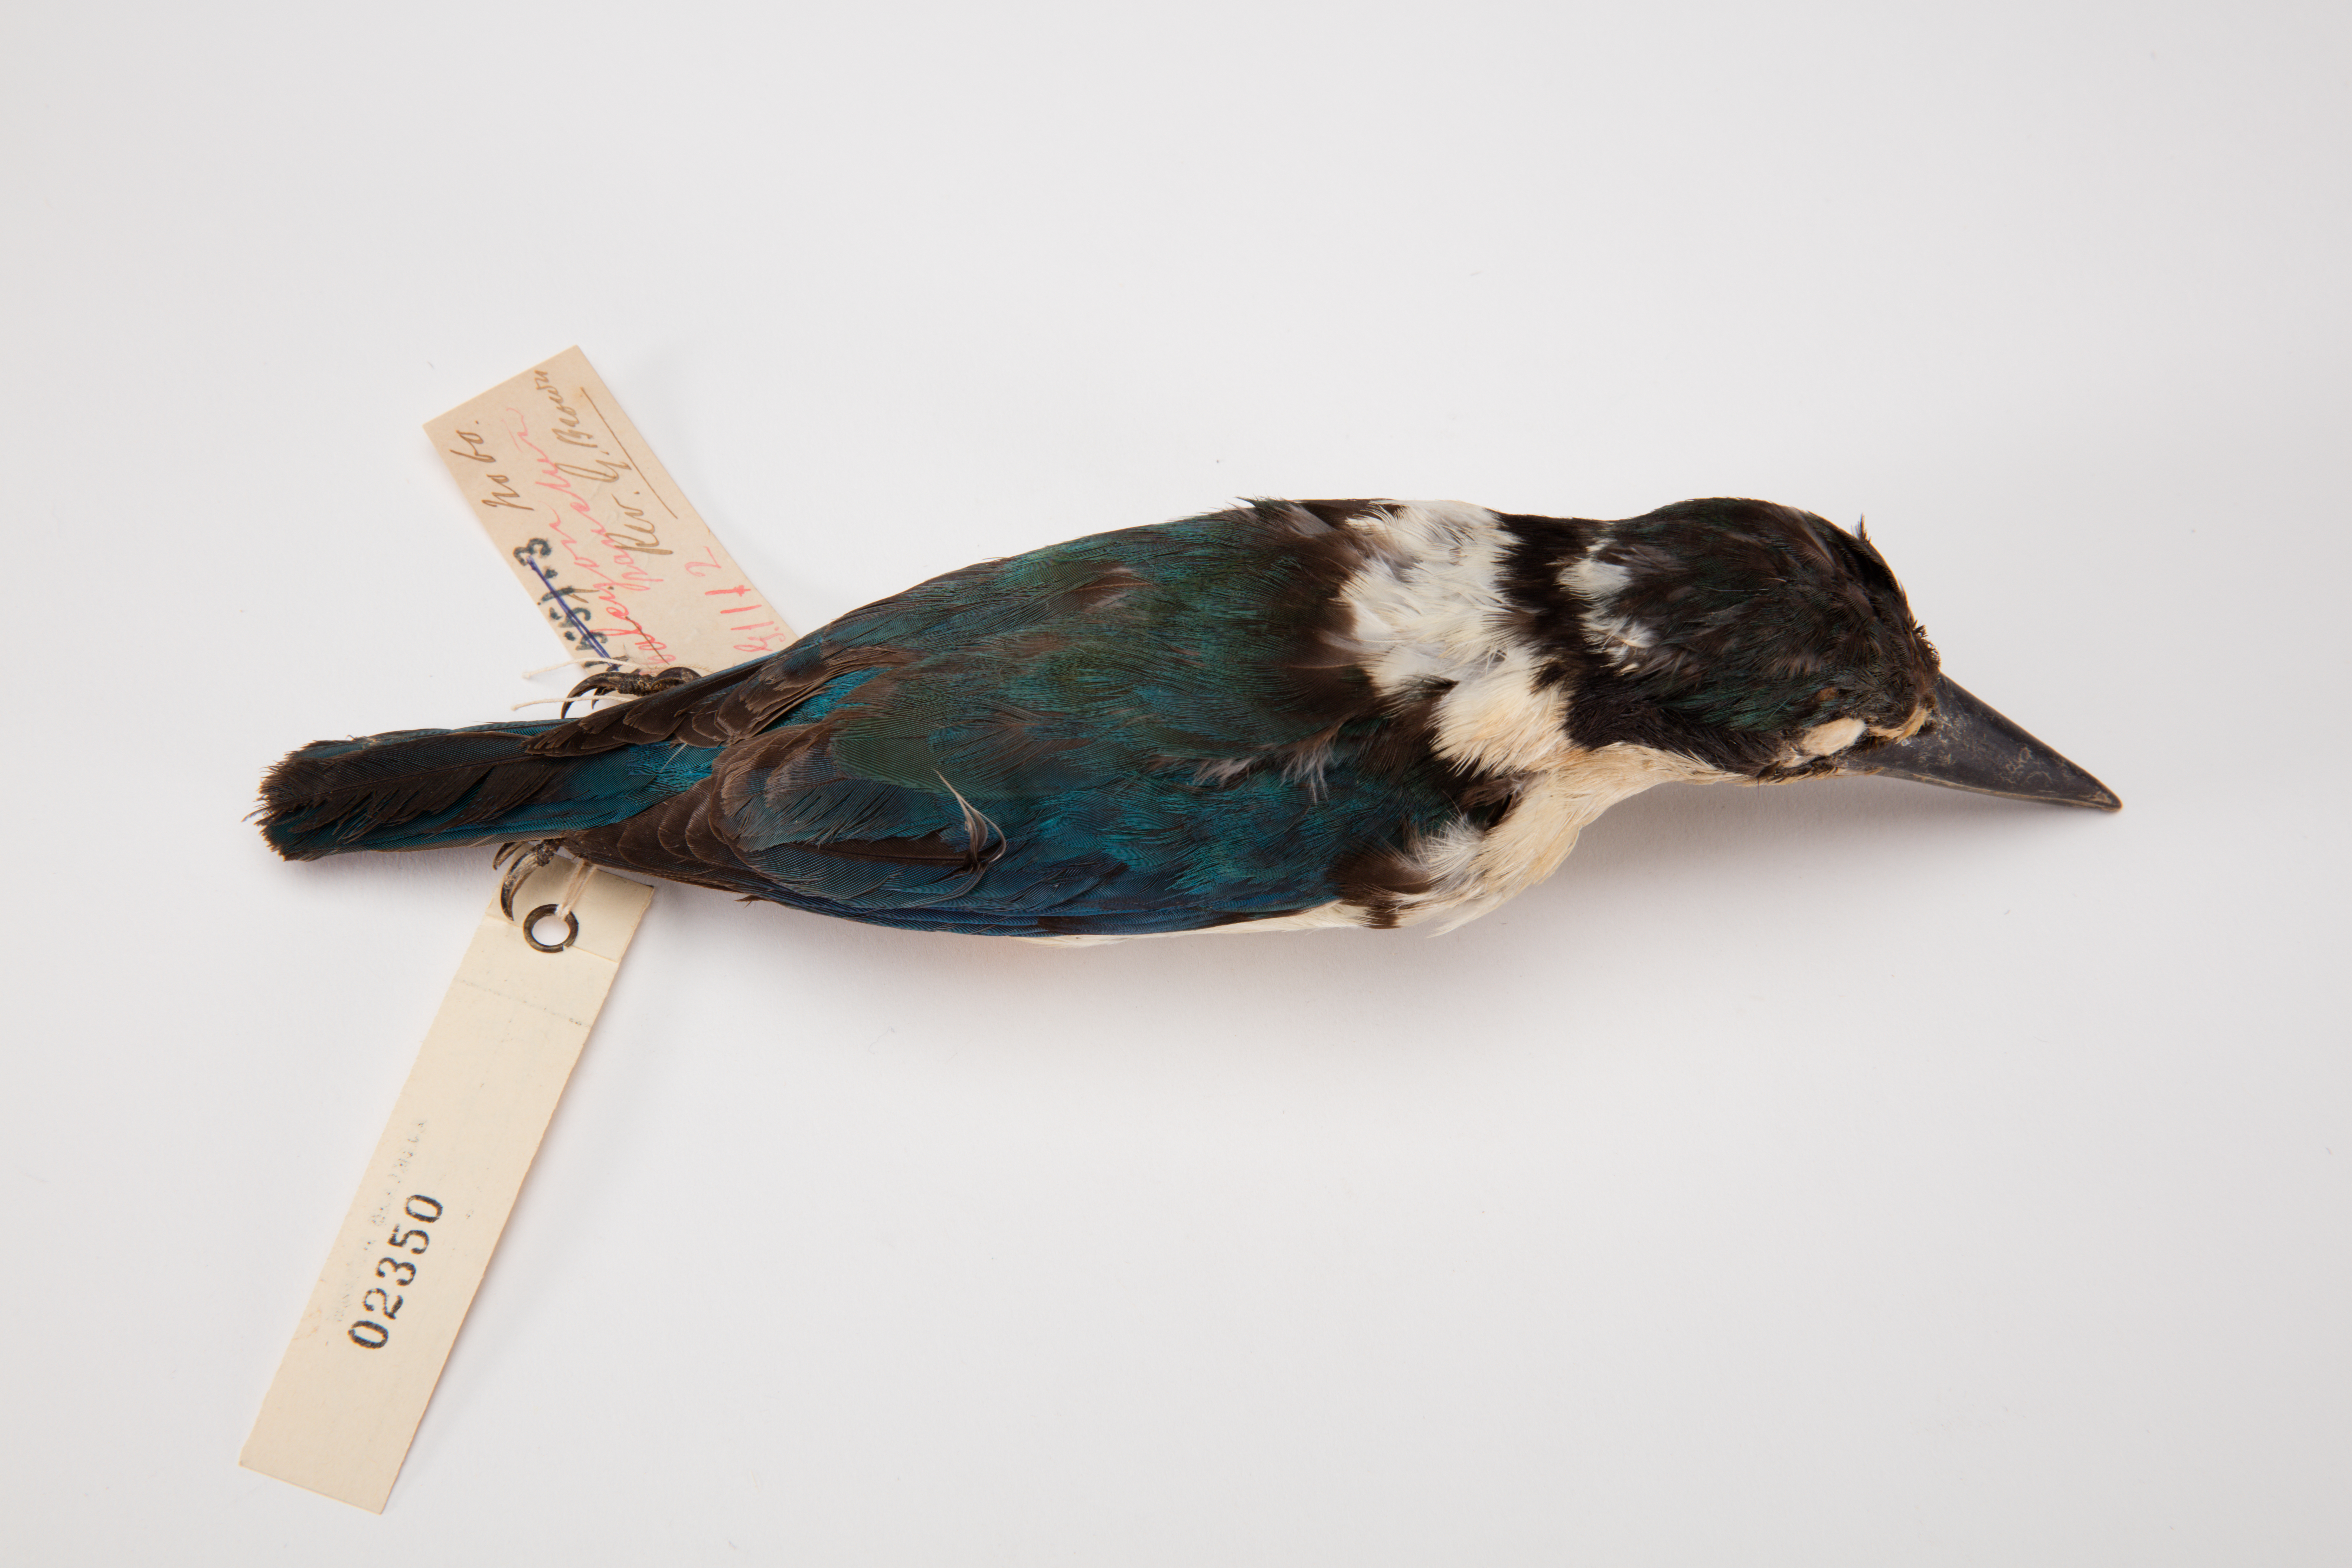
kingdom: Animalia
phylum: Chordata
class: Aves
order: Coraciiformes
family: Alcedinidae
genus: Todiramphus
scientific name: Todiramphus chloris
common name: Collared kingfisher
